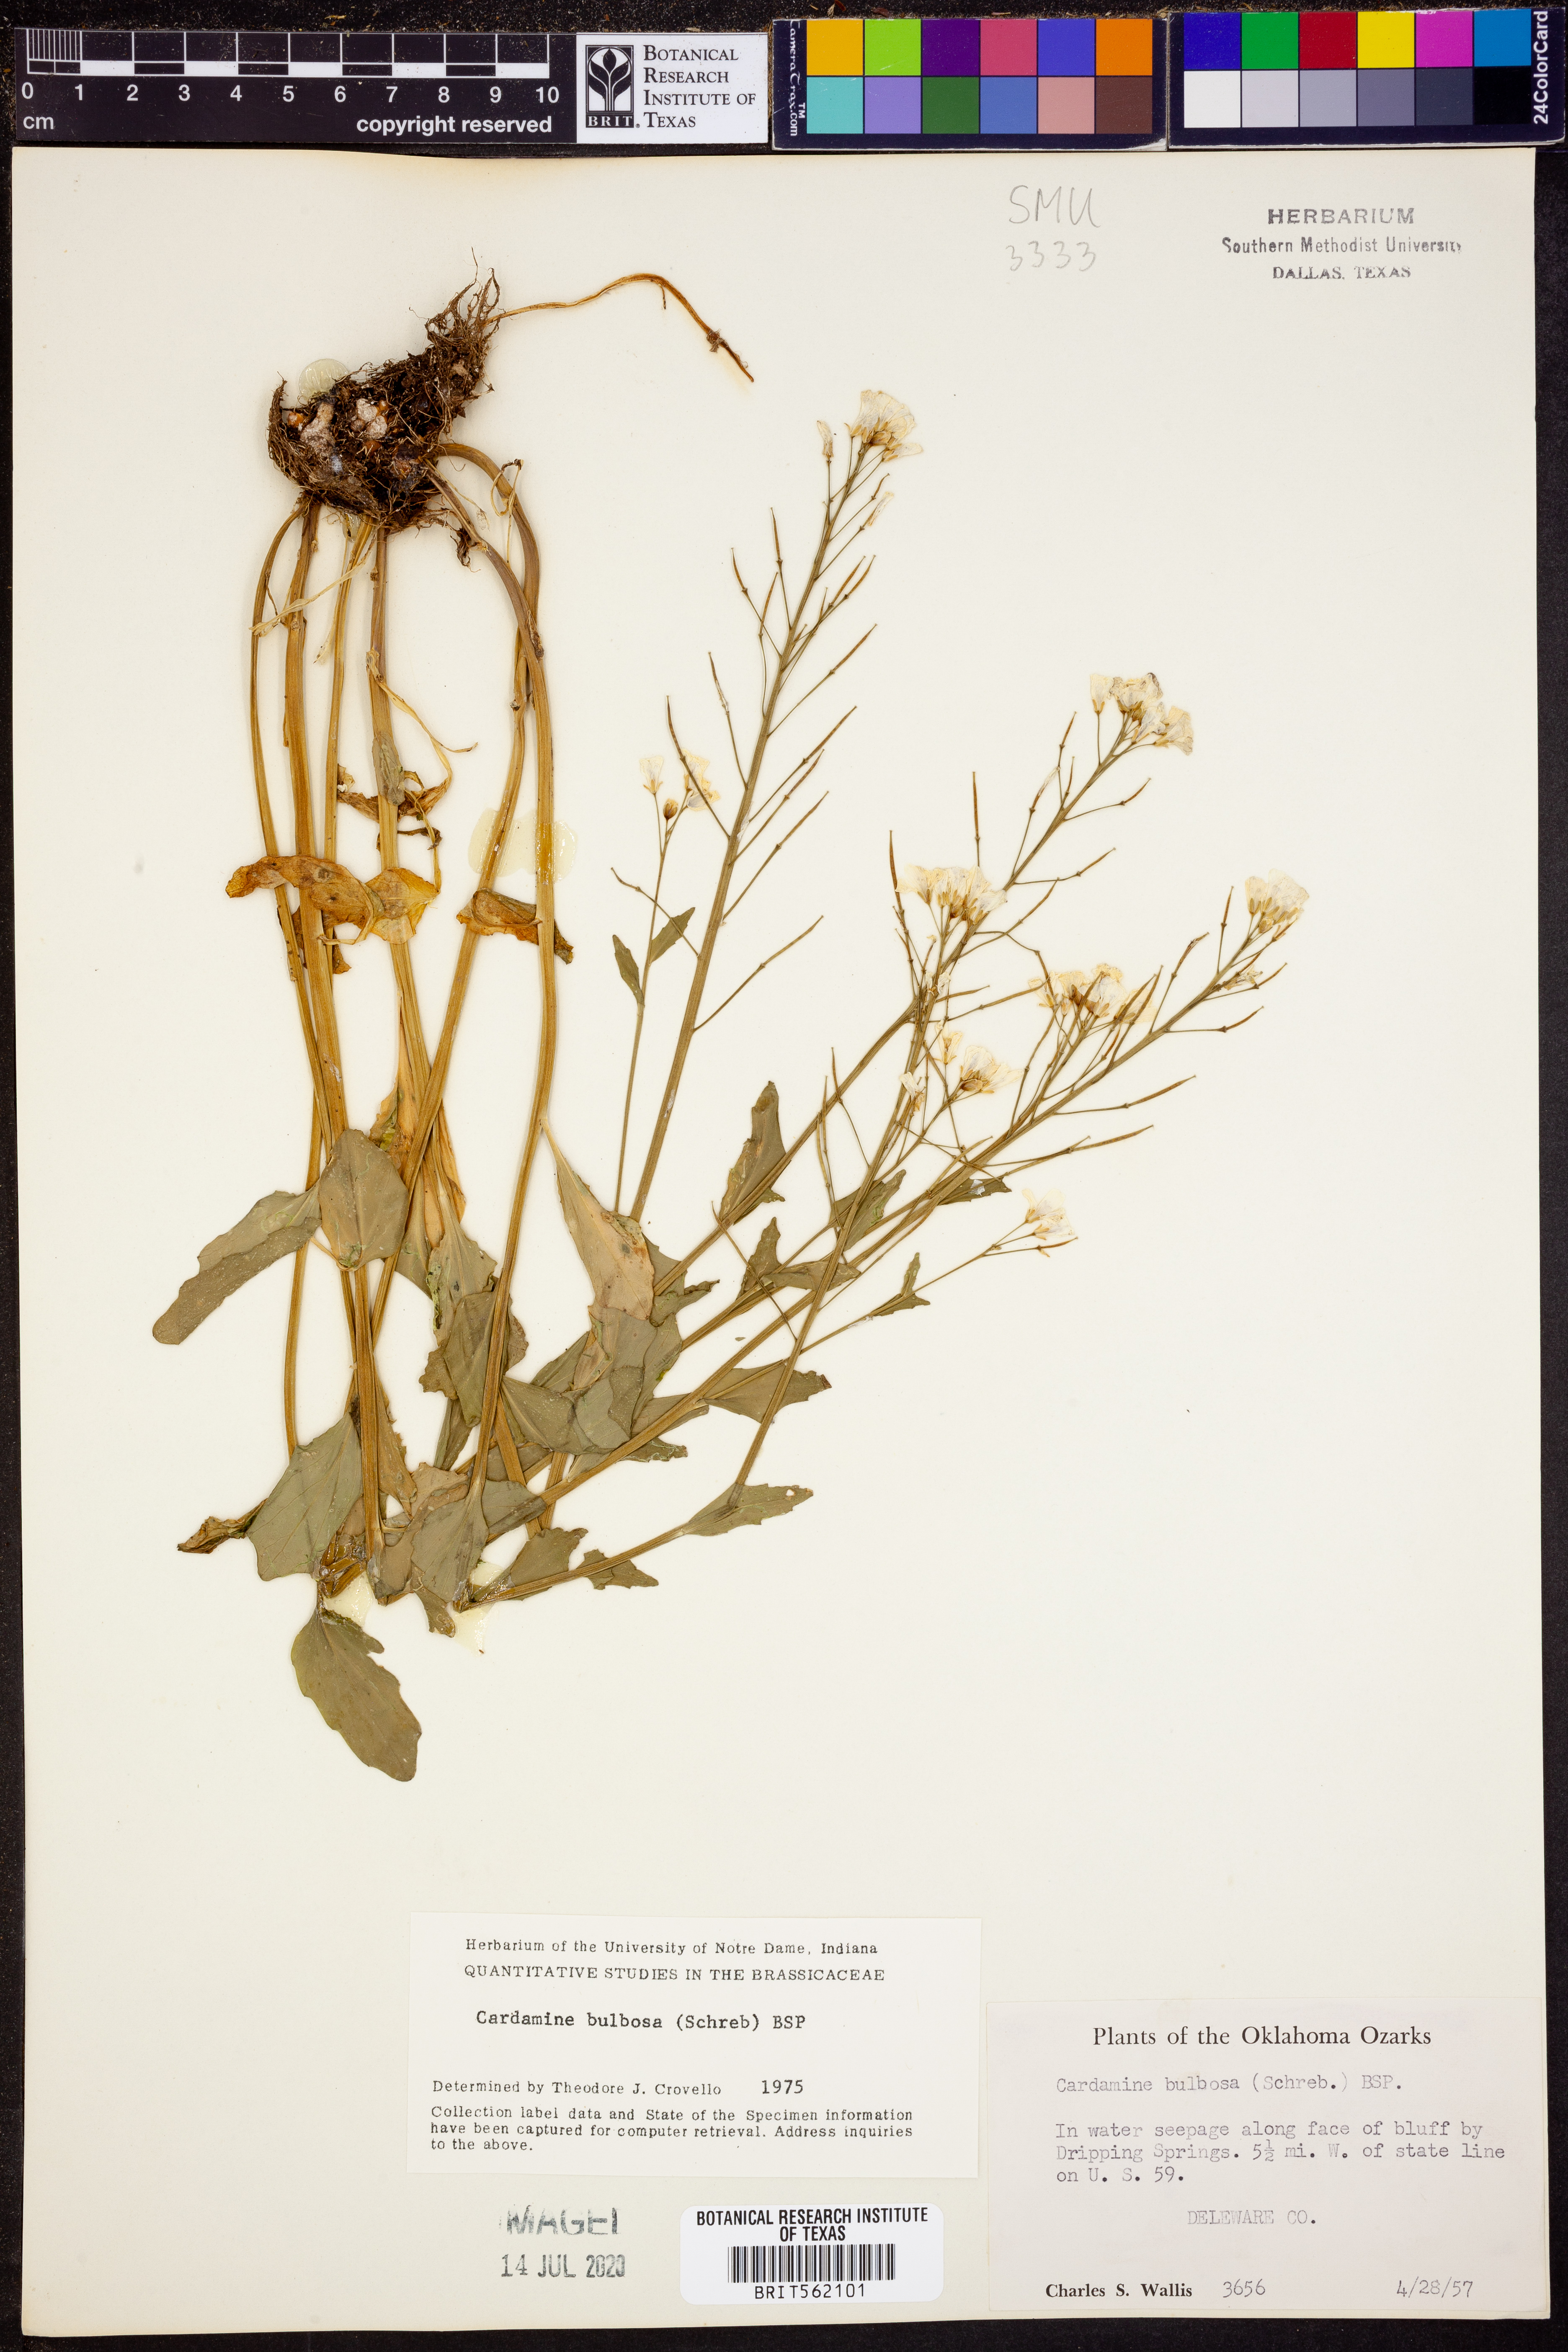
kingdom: Plantae
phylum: Tracheophyta
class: Magnoliopsida
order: Brassicales
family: Brassicaceae
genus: Cardamine
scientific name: Cardamine bulbosa
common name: Spring cress
